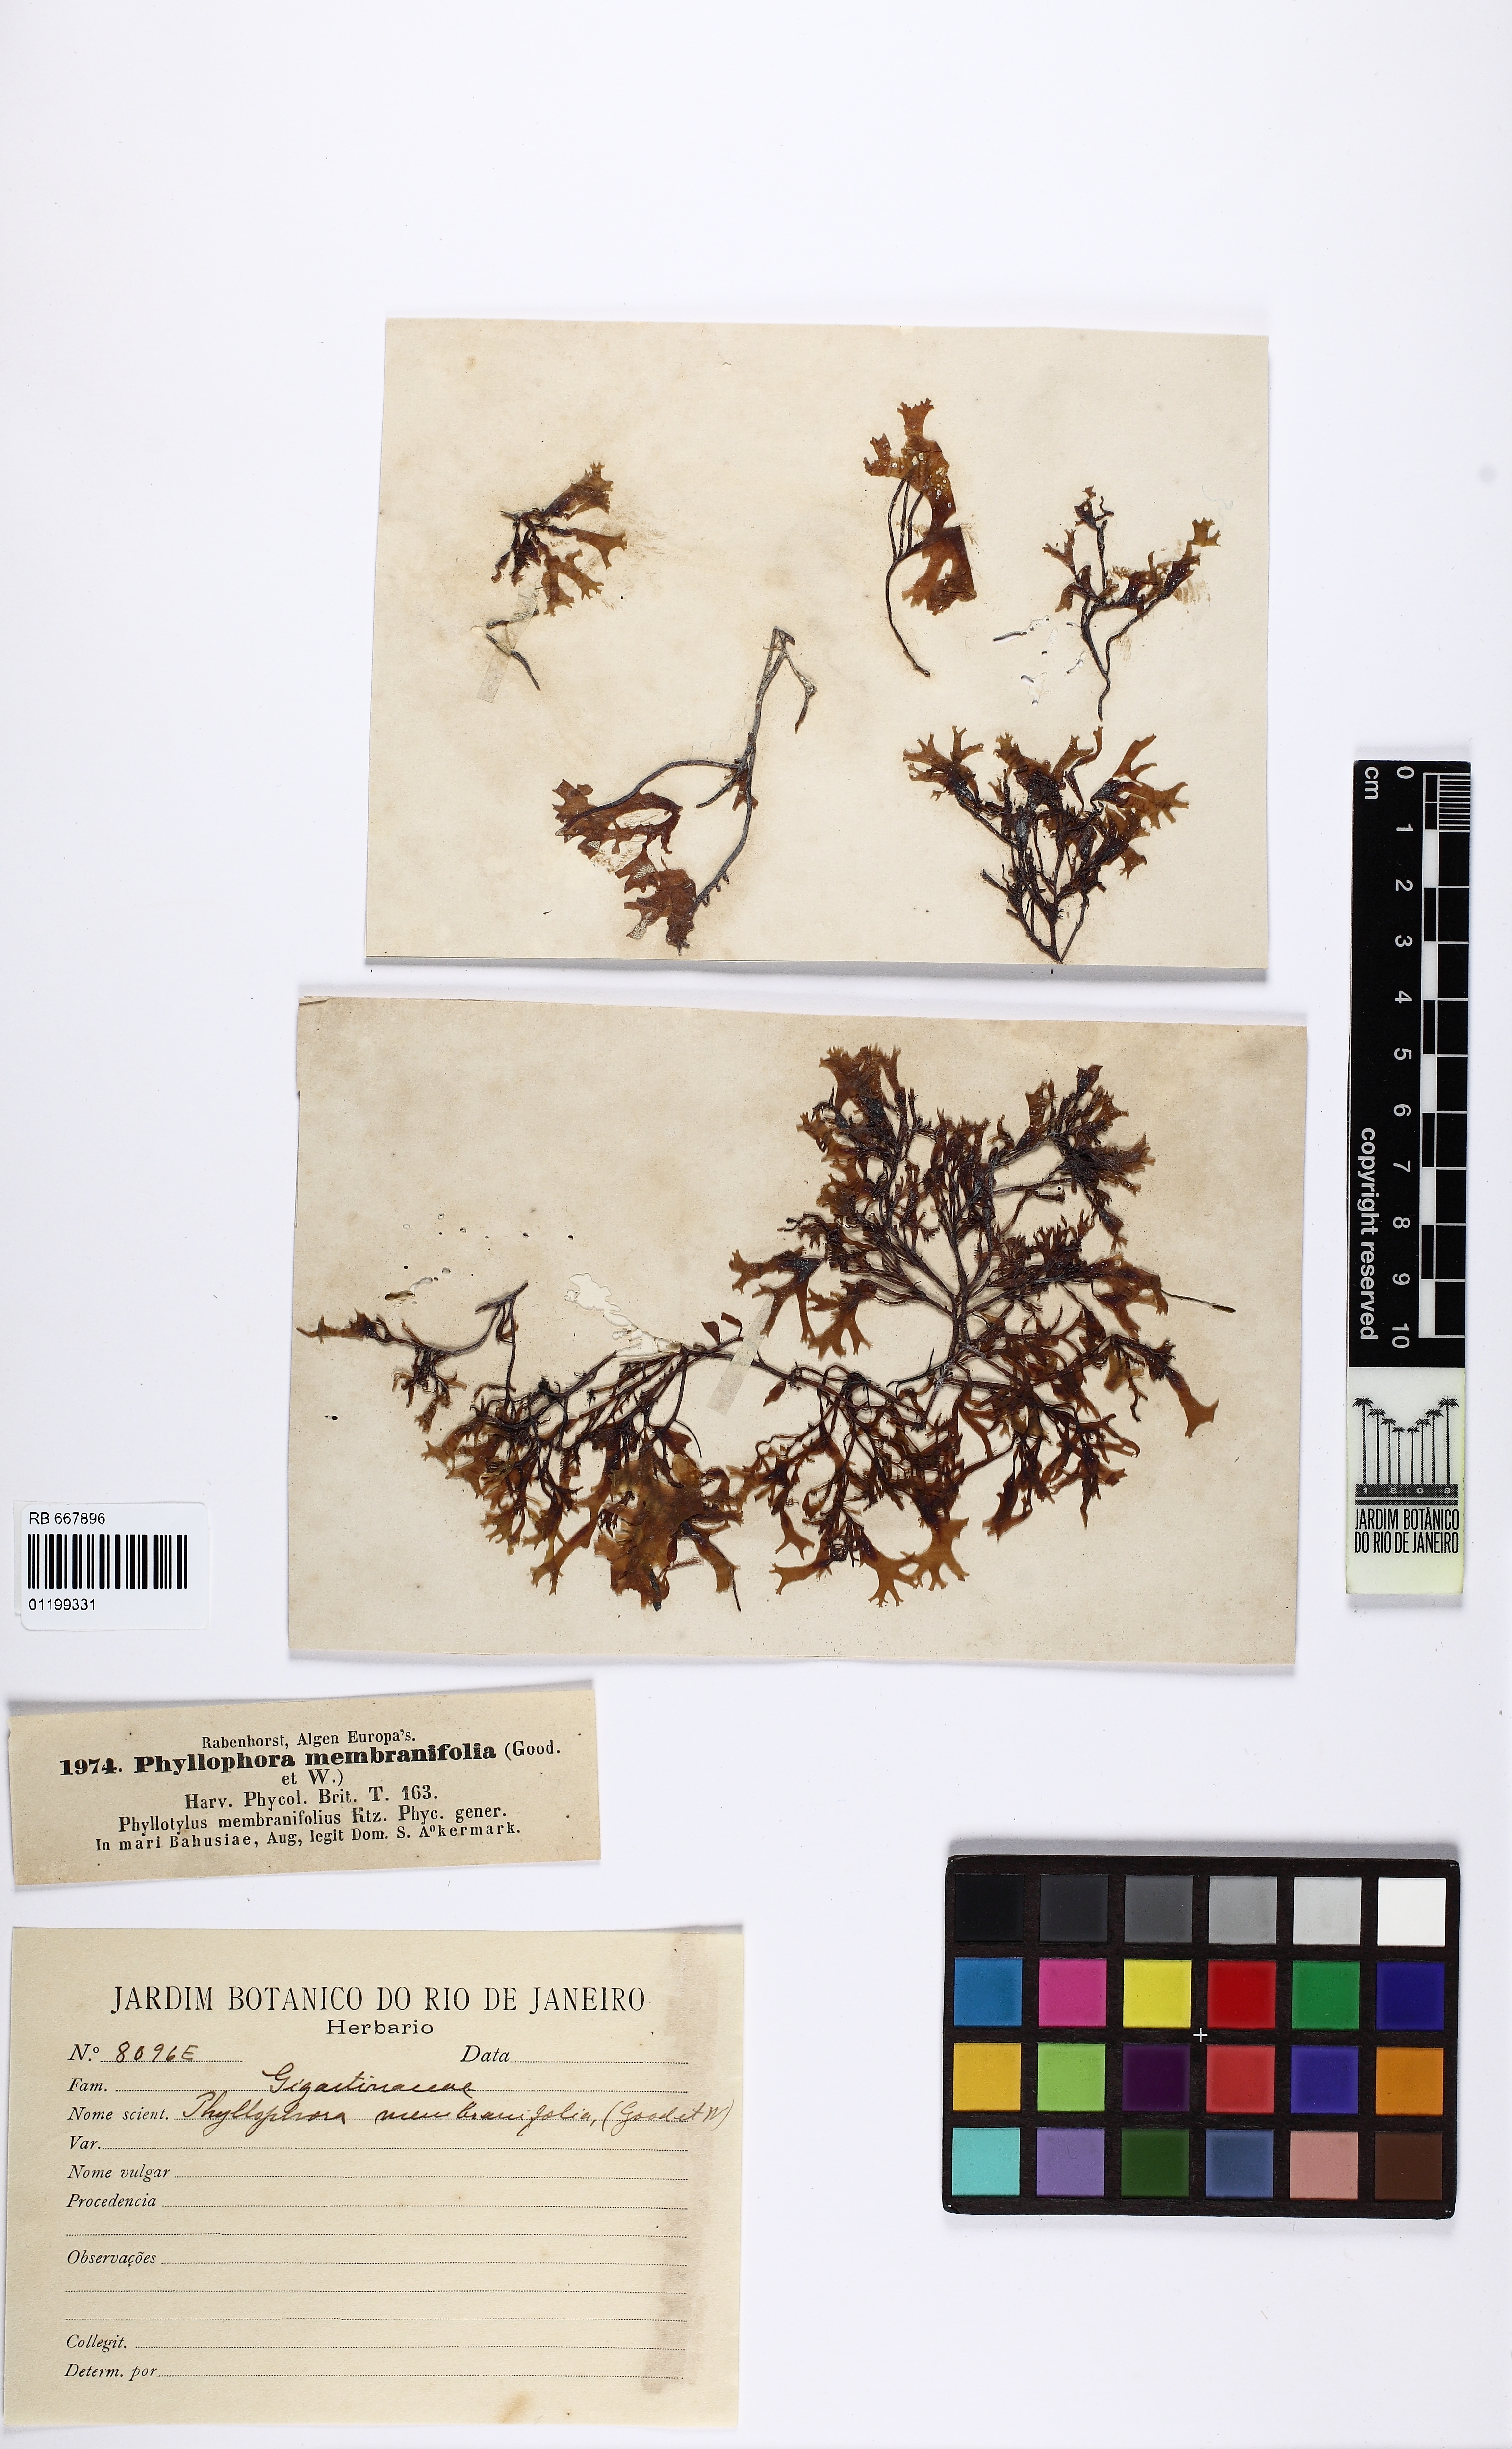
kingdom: Plantae
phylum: Rhodophyta
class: Florideophyceae
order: Gigartinales
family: Phyllophoraceae
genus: Phyllophora
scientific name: Phyllophora pseudoceranoides
